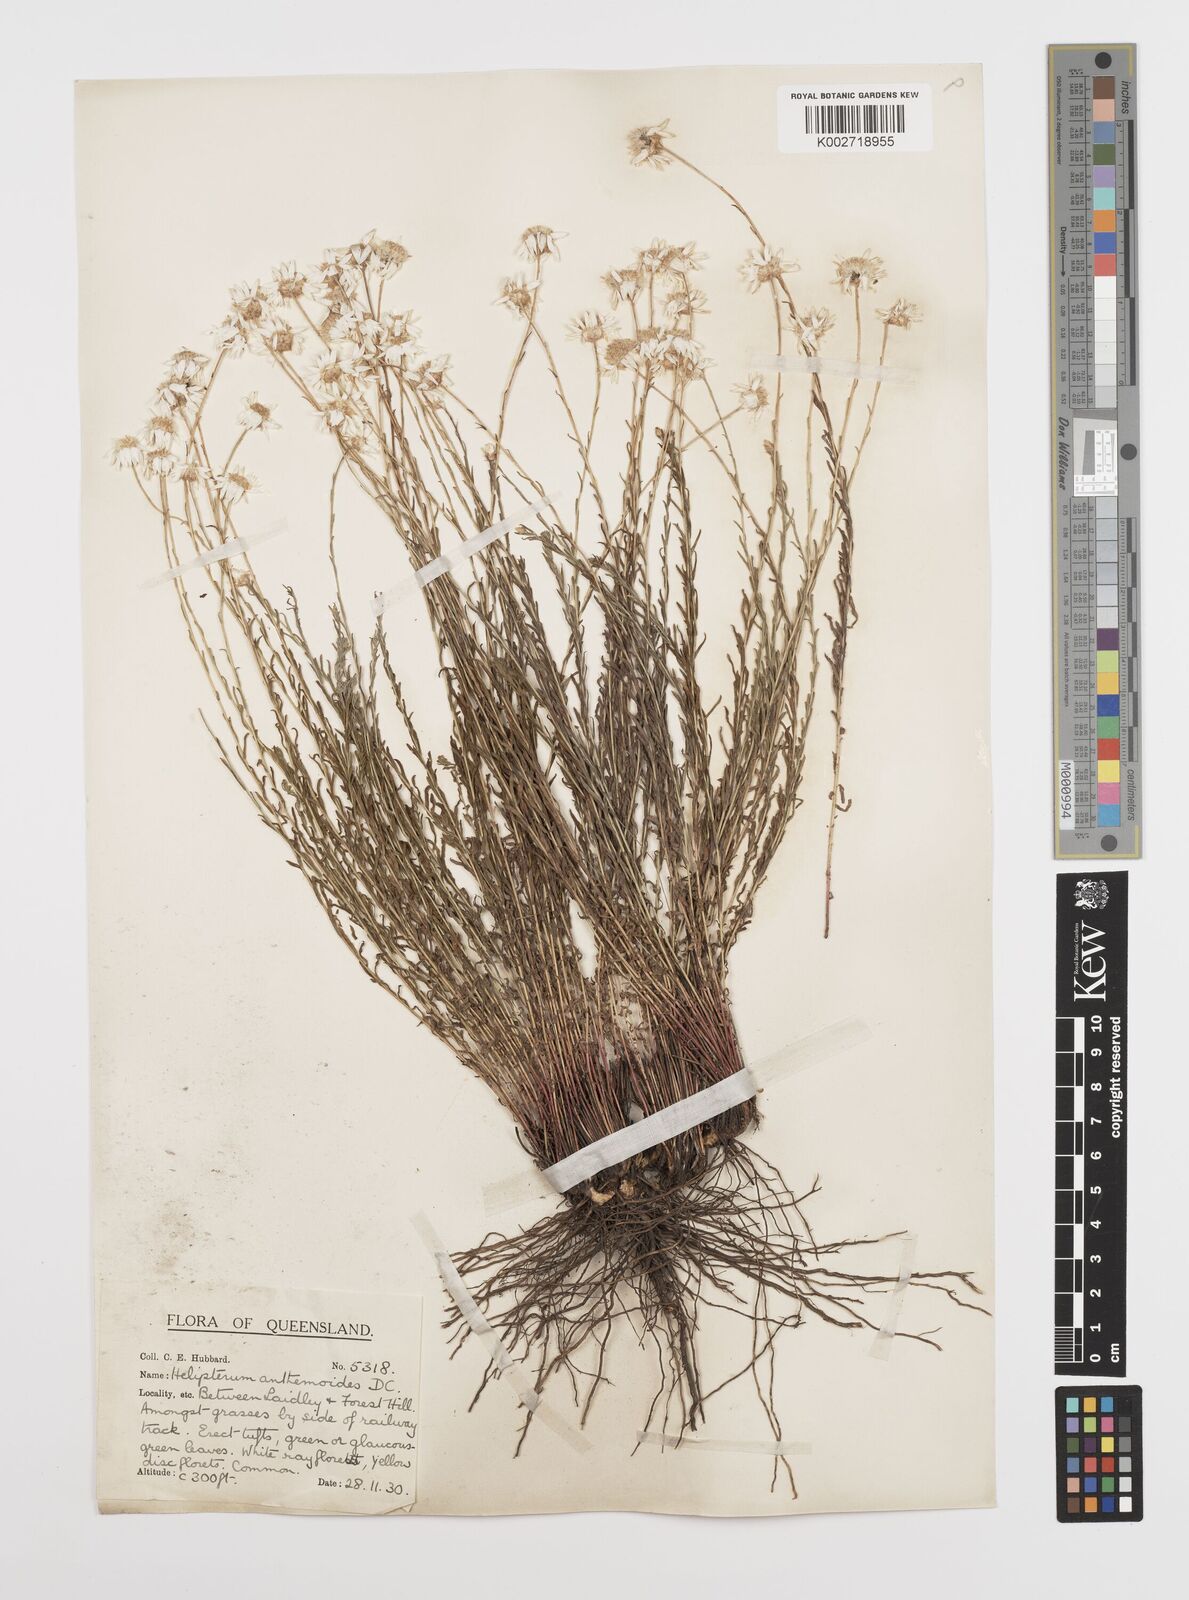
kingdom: Plantae
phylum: Tracheophyta
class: Magnoliopsida
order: Asterales
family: Asteraceae
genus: Rhodanthe
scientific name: Rhodanthe anthemoides
